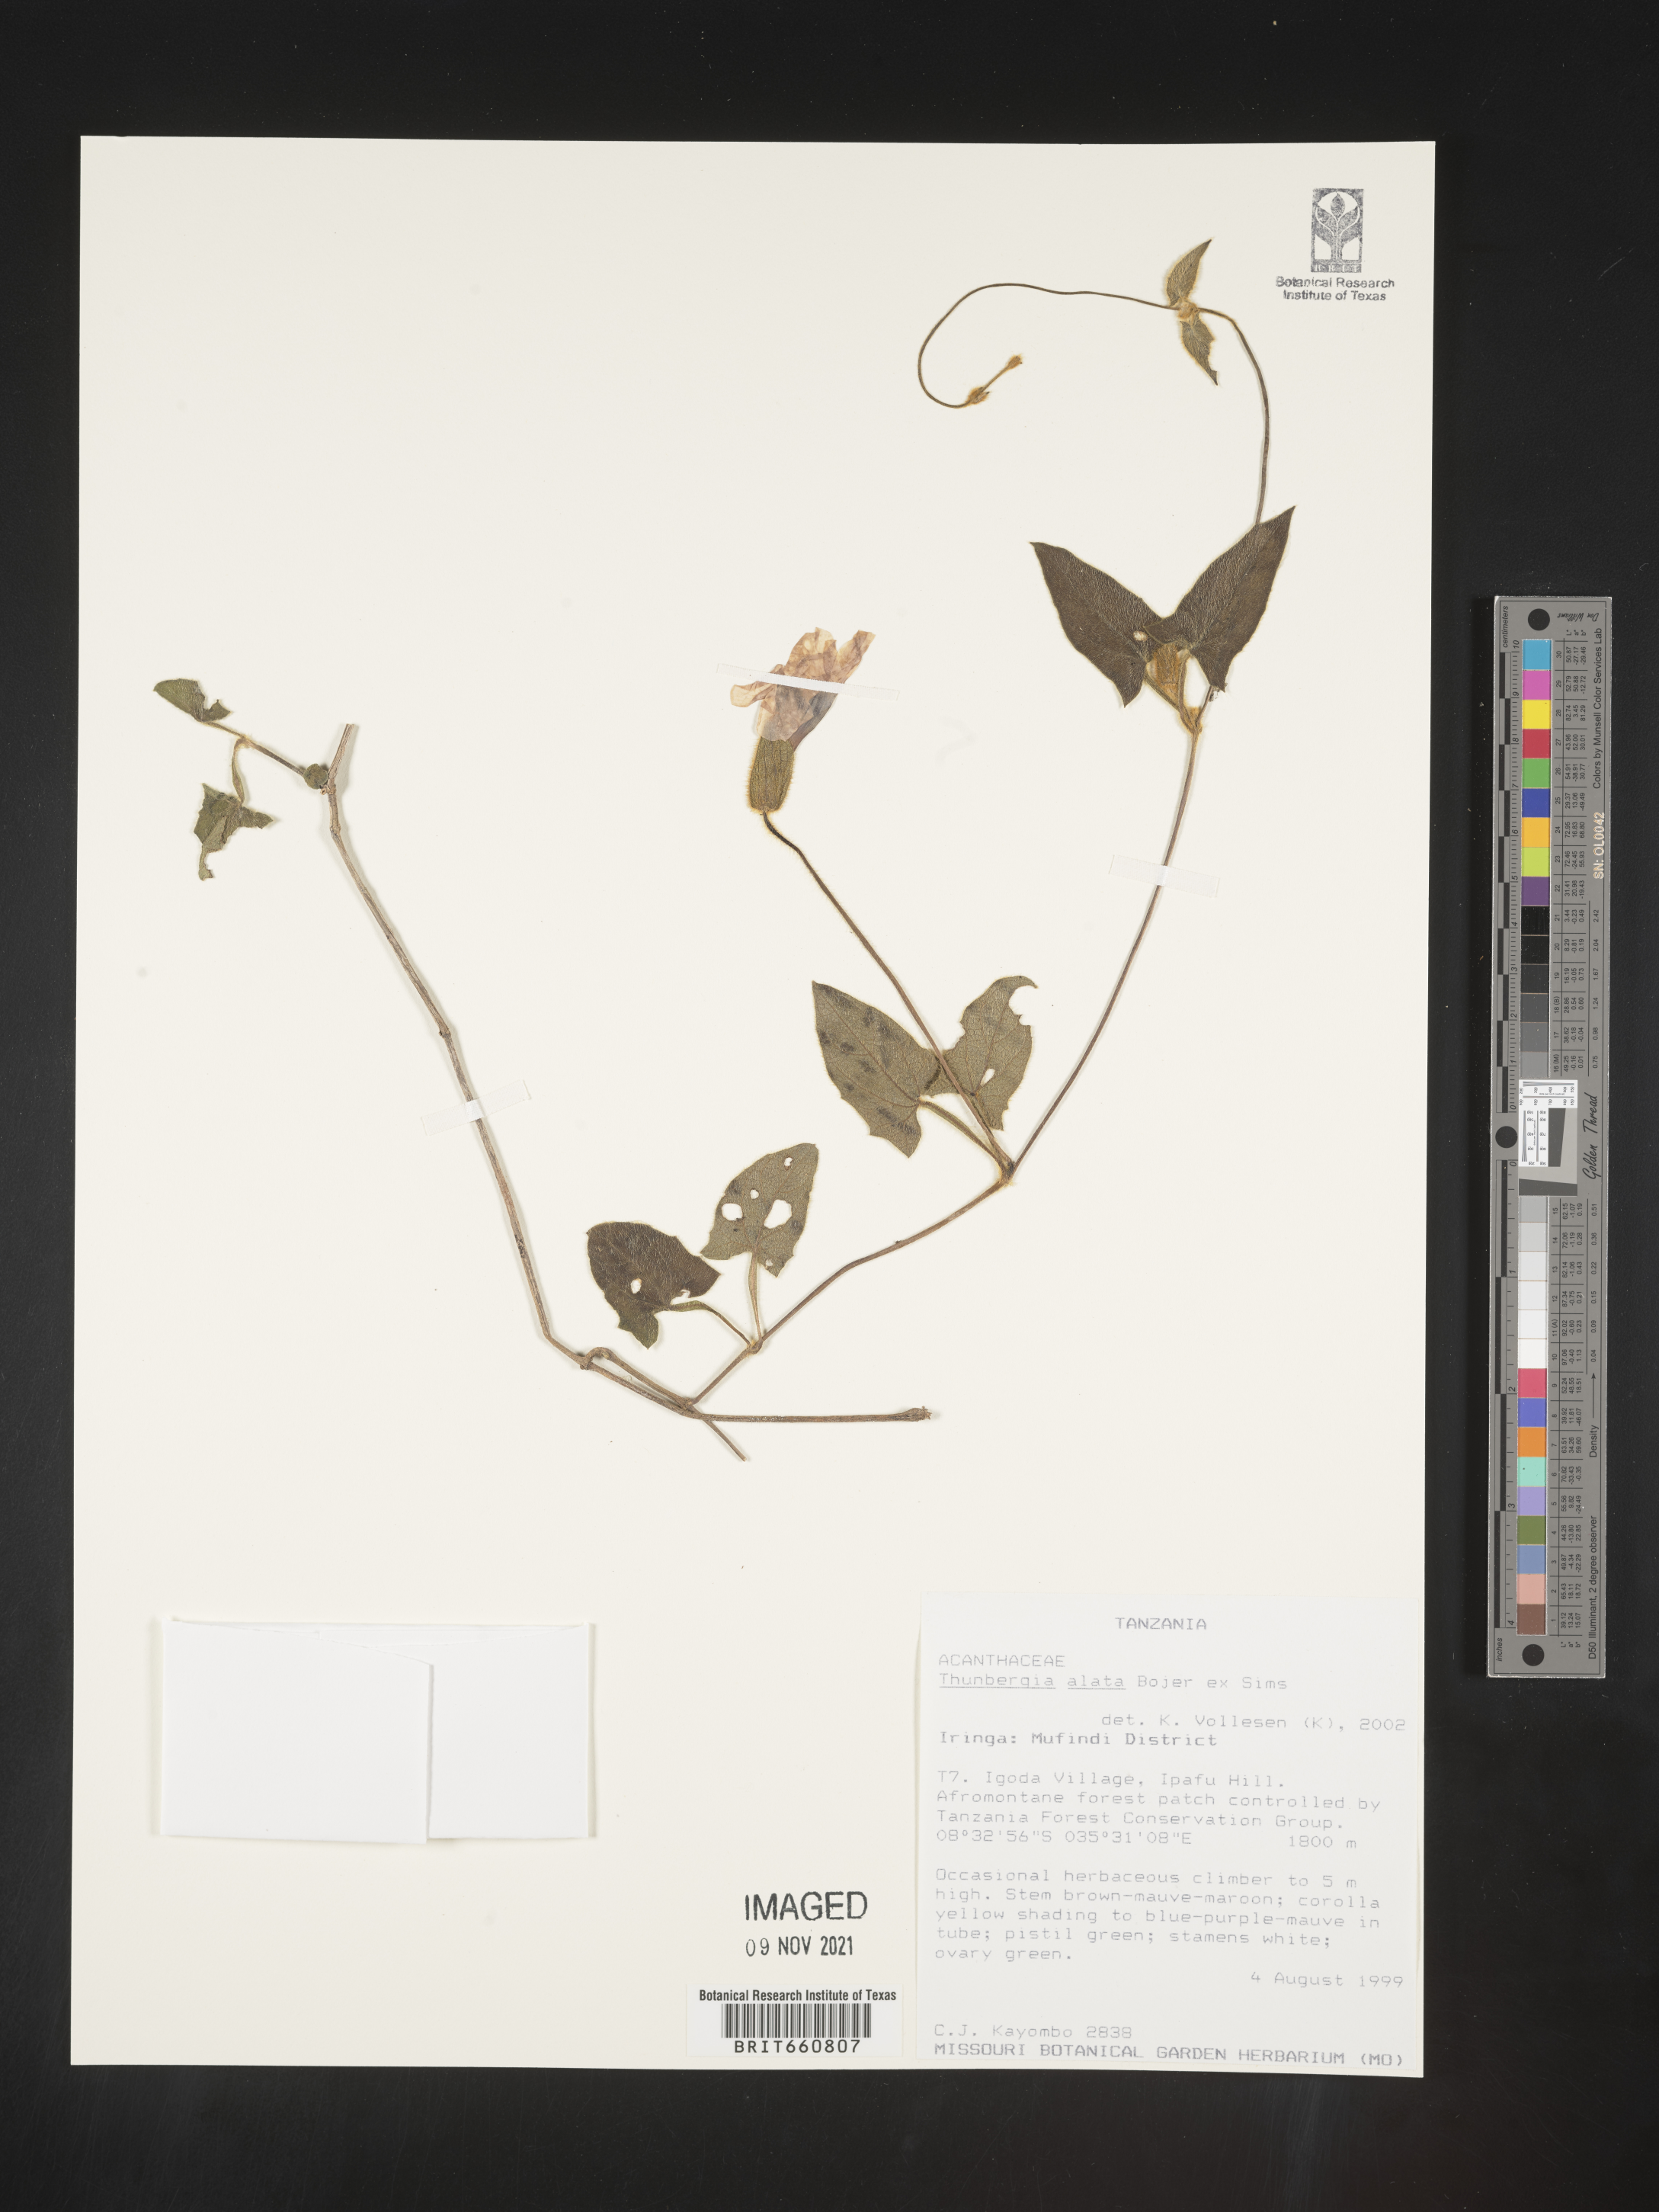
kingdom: Plantae
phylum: Tracheophyta
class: Magnoliopsida
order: Lamiales
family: Acanthaceae
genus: Thunbergia
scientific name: Thunbergia
